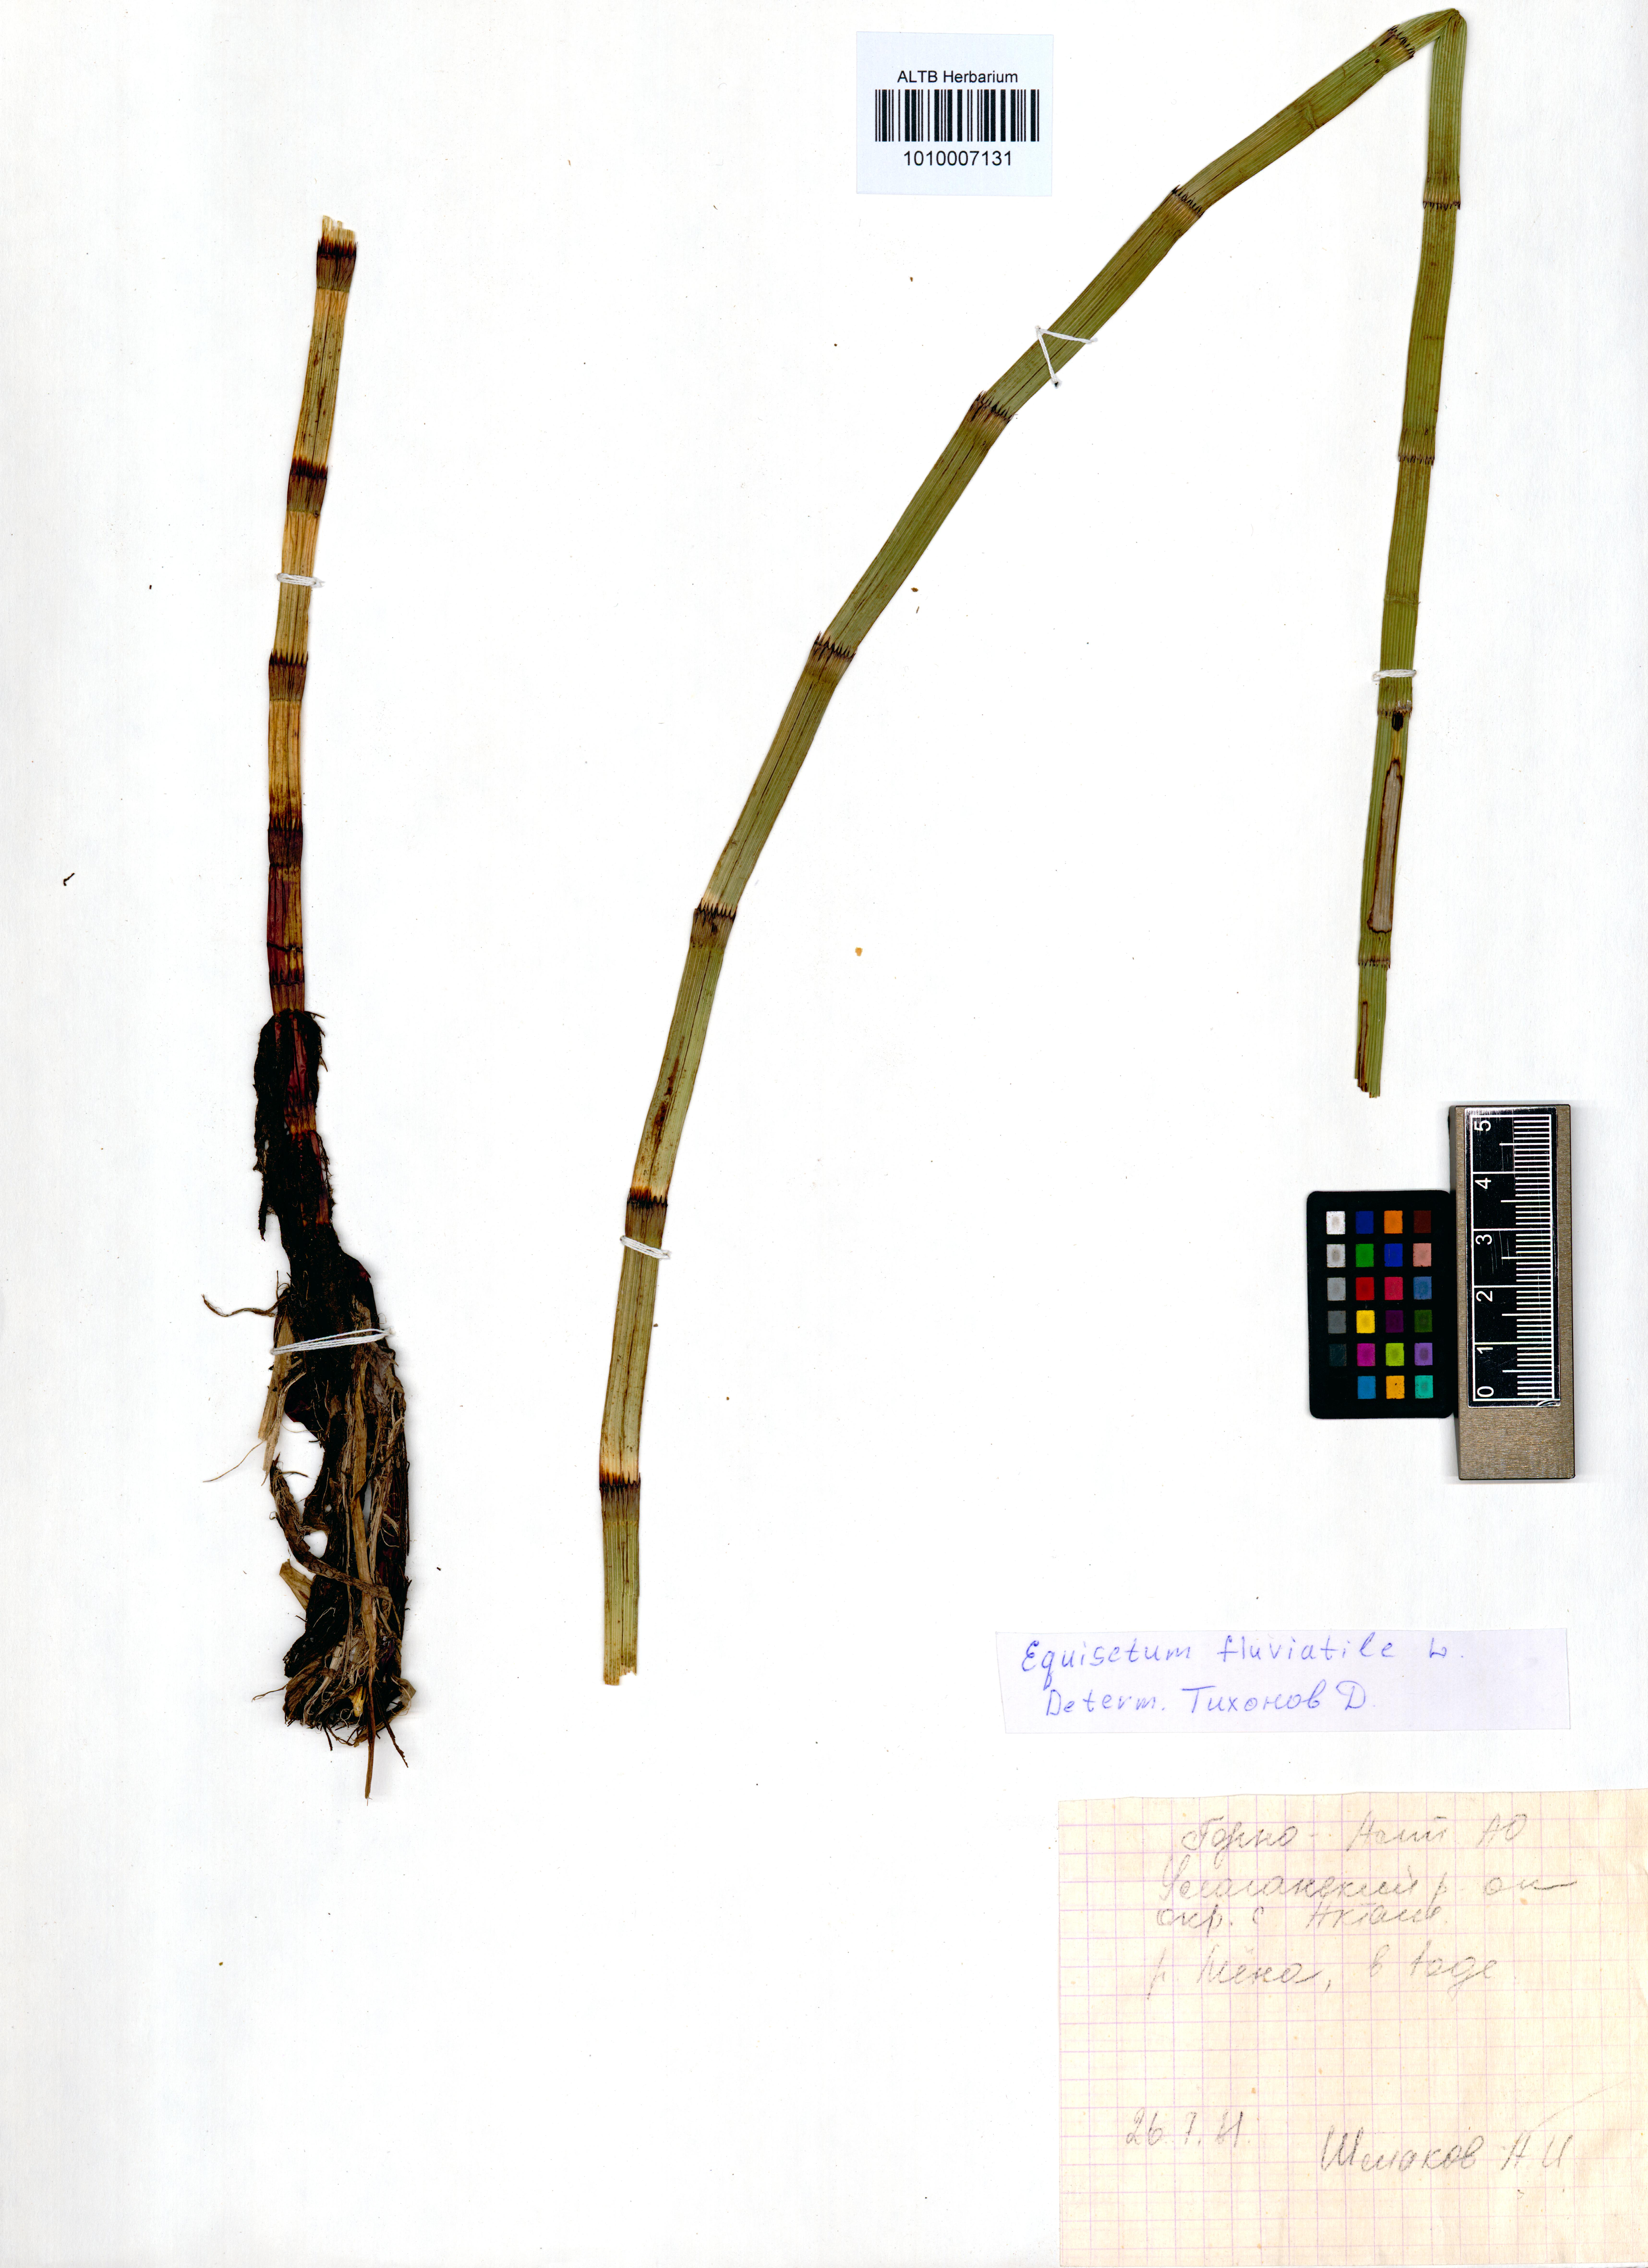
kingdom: Plantae
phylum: Tracheophyta
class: Polypodiopsida
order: Equisetales
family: Equisetaceae
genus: Equisetum
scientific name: Equisetum fluviatile
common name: Water horsetail
